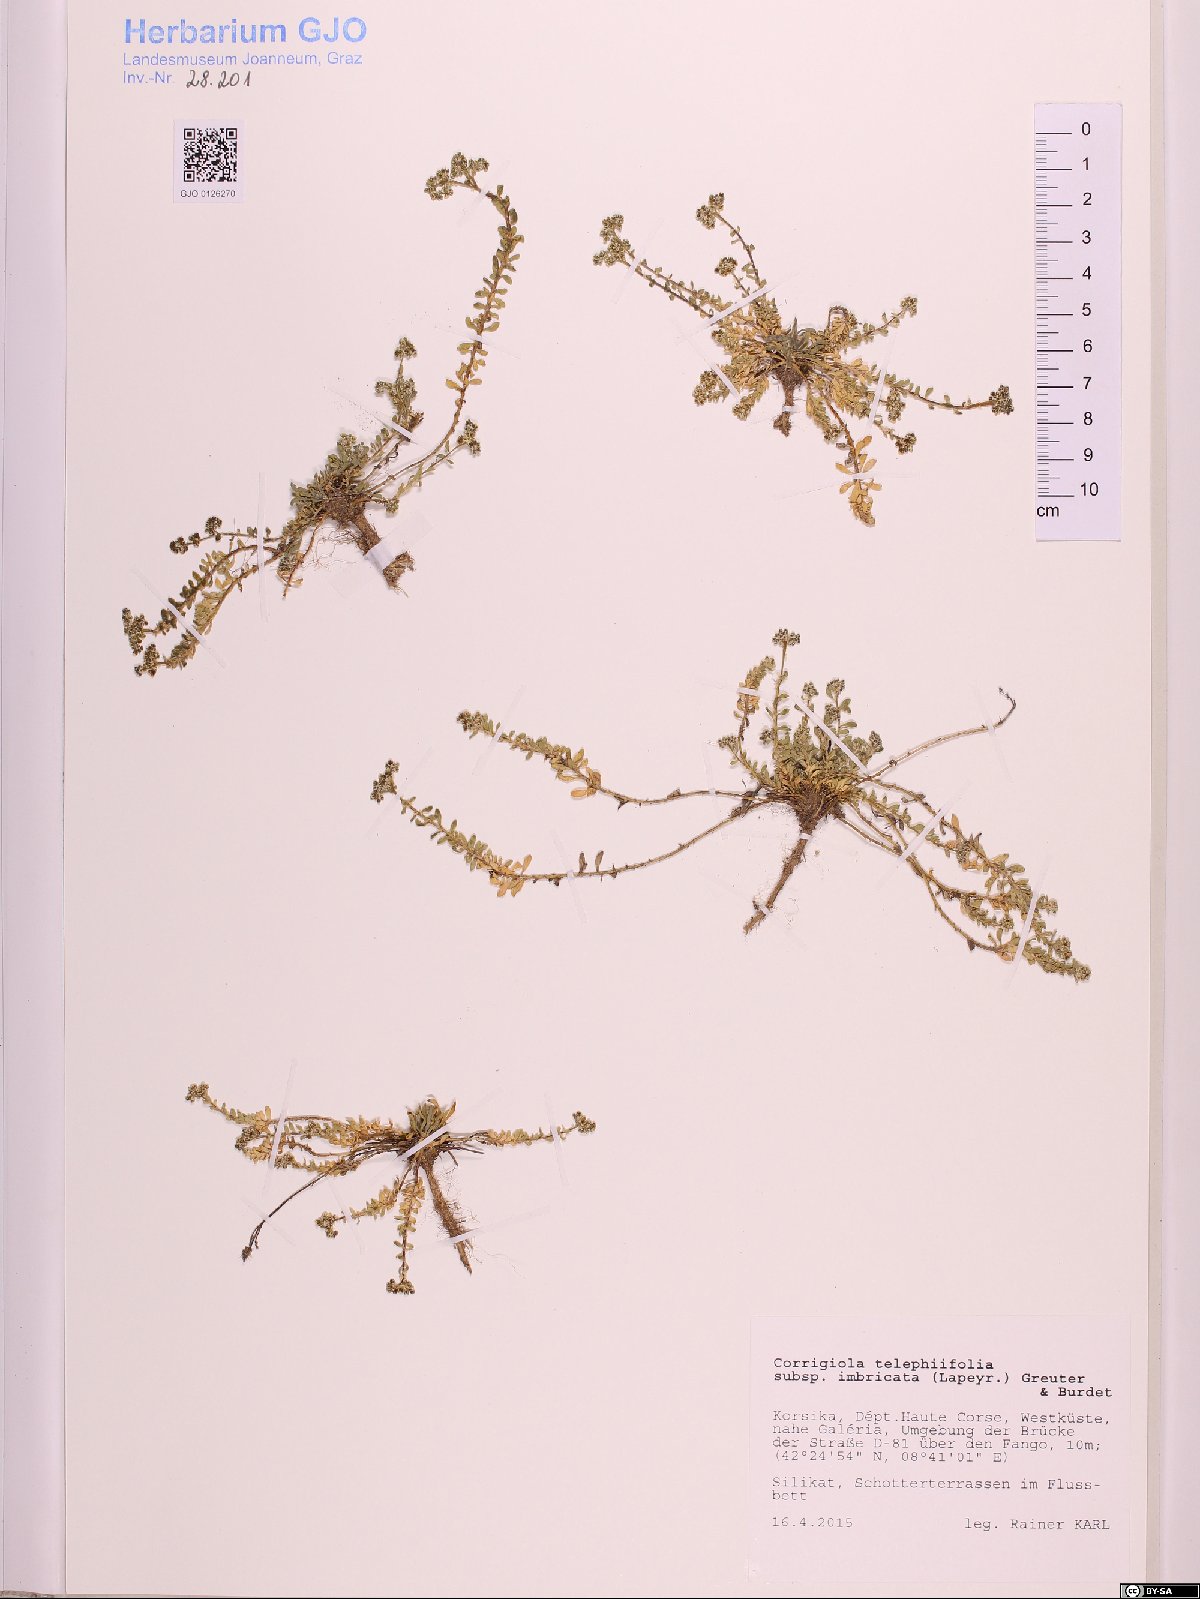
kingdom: Plantae
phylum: Tracheophyta
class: Magnoliopsida
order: Caryophyllales
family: Caryophyllaceae
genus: Corrigiola
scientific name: Corrigiola
